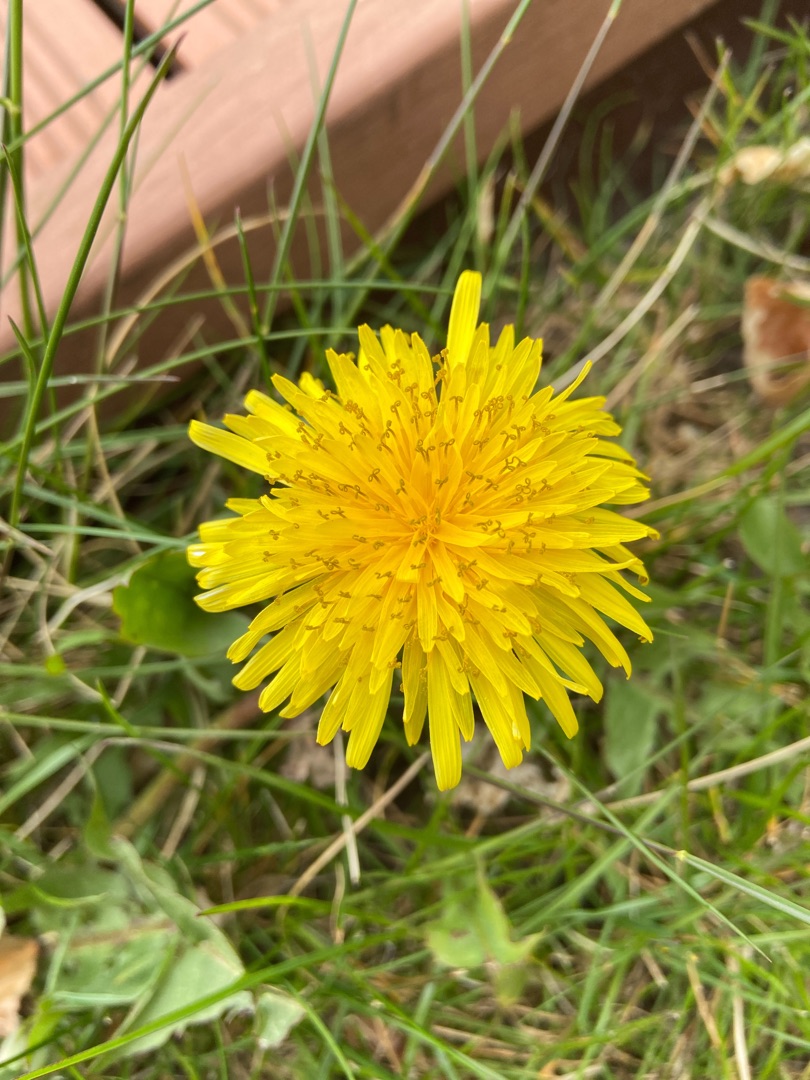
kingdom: Plantae
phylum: Tracheophyta
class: Magnoliopsida
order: Asterales
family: Asteraceae
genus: Taraxacum
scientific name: Taraxacum
